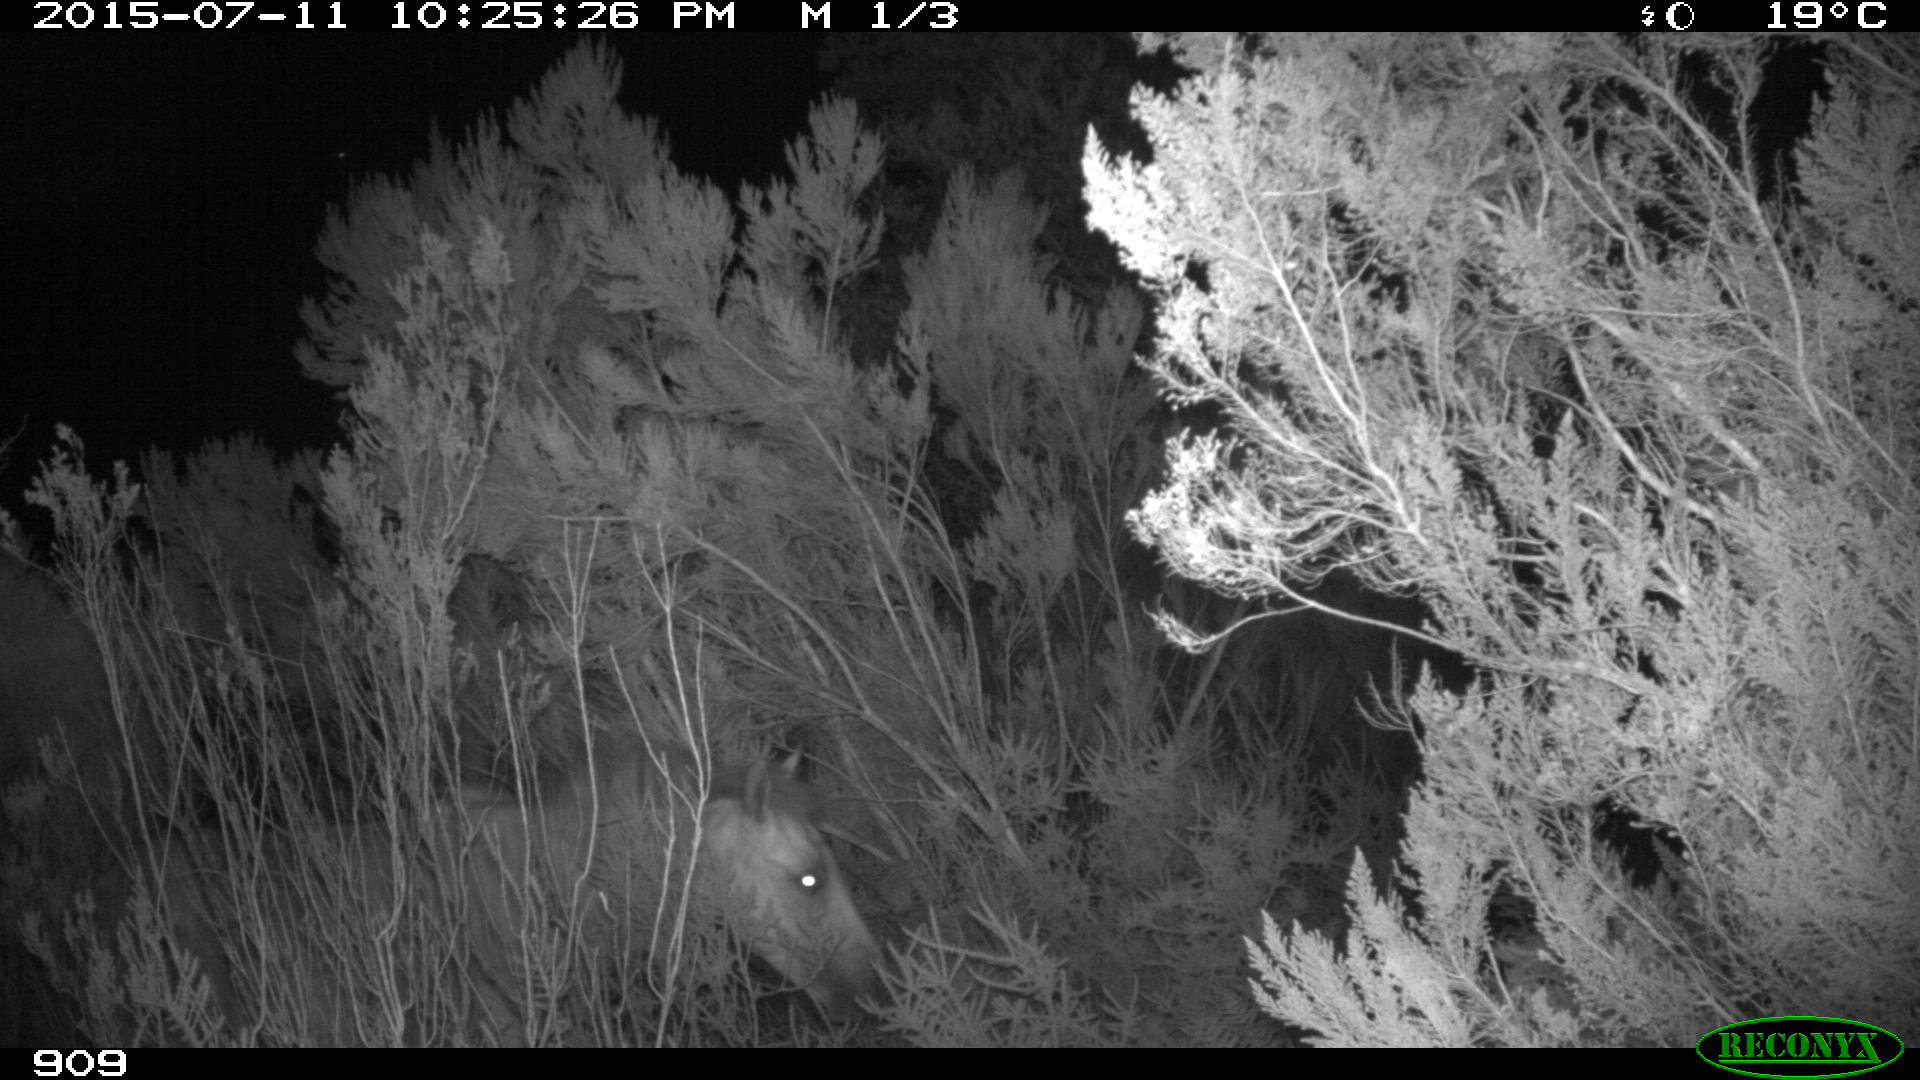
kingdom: Animalia
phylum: Chordata
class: Mammalia
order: Perissodactyla
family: Equidae
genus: Equus
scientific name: Equus caballus
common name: Horse
